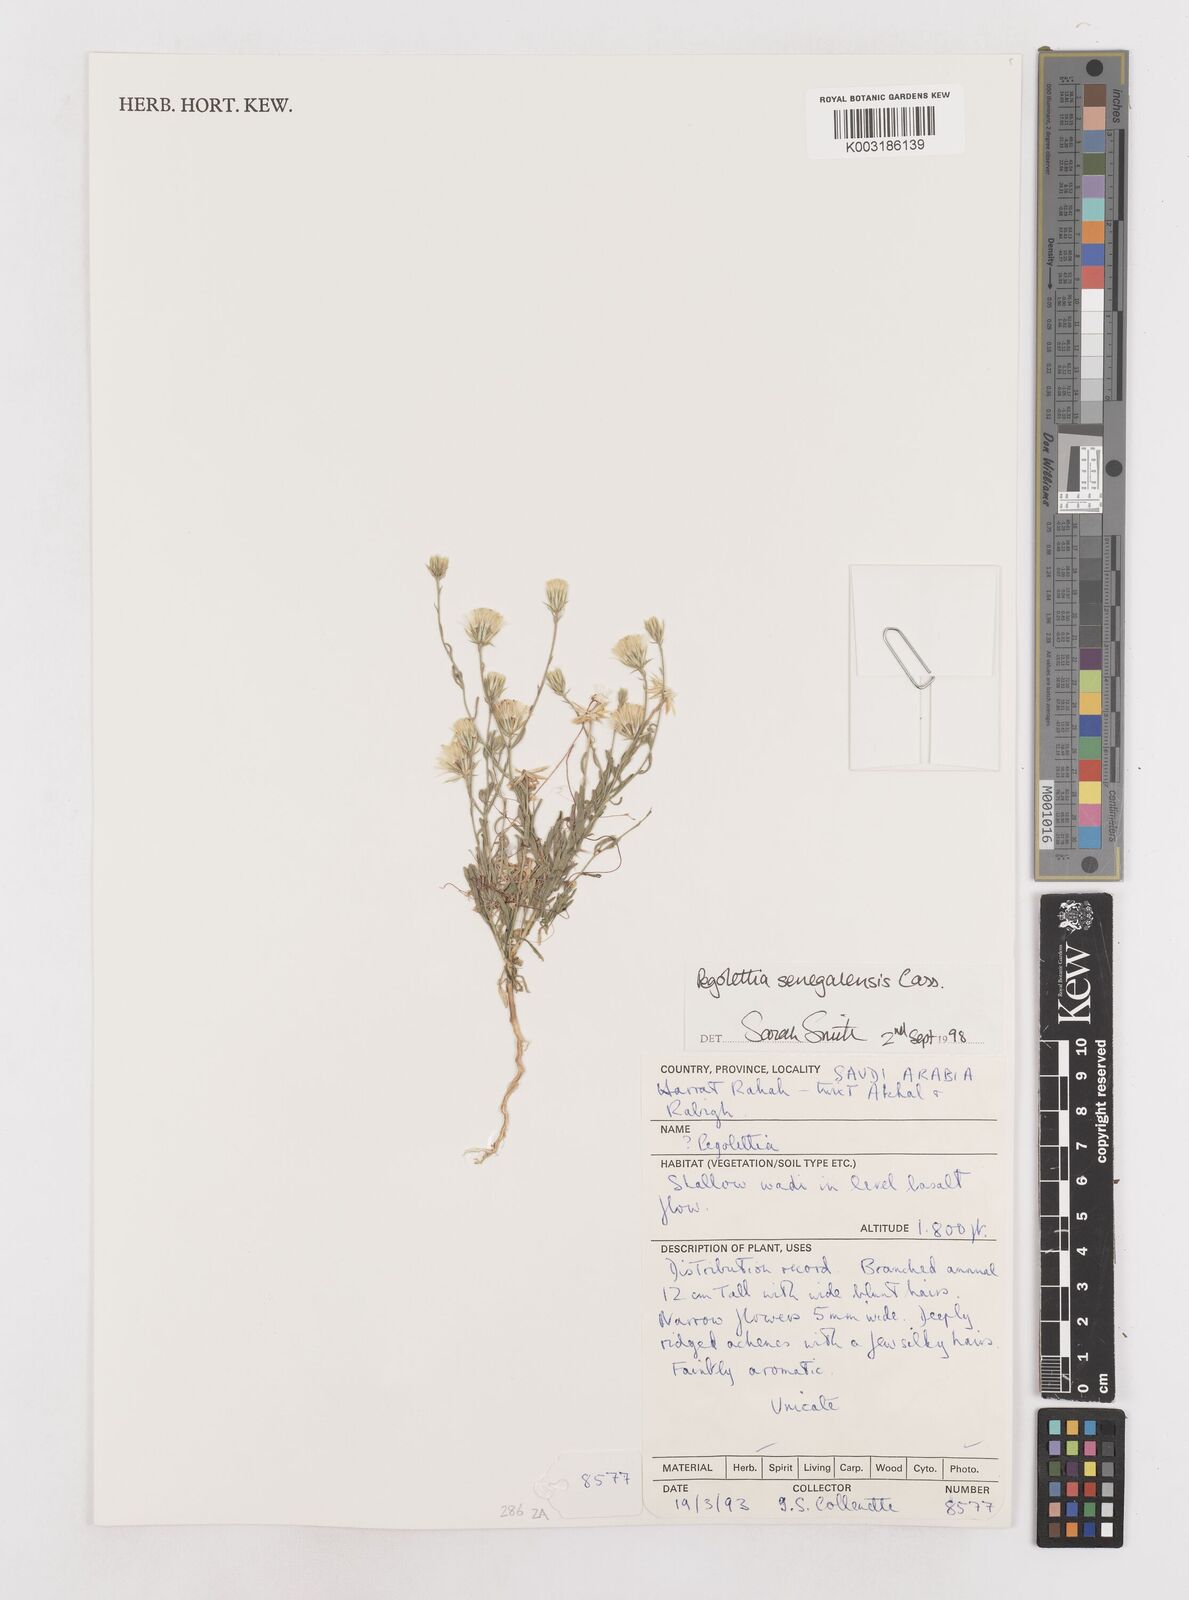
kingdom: Plantae
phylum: Tracheophyta
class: Magnoliopsida
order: Asterales
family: Asteraceae
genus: Pegolettia
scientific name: Pegolettia senegalensis
